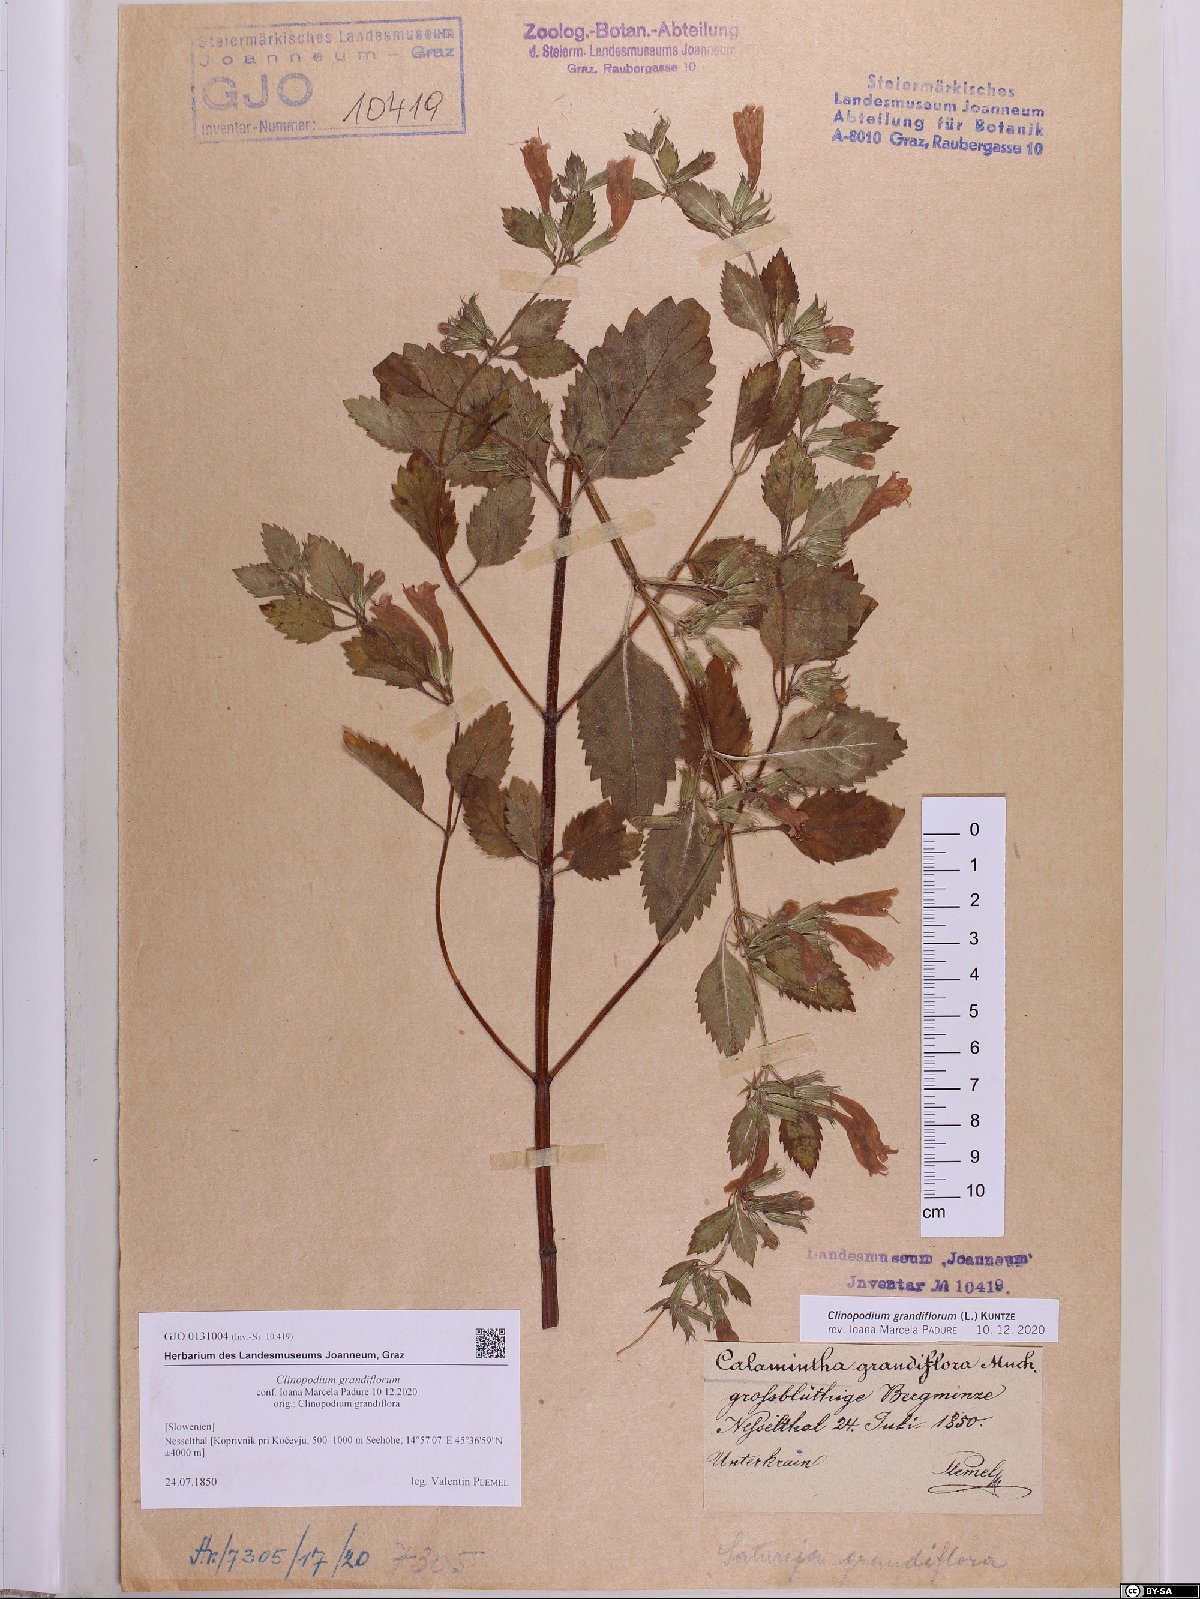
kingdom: Plantae
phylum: Tracheophyta
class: Magnoliopsida
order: Lamiales
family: Lamiaceae
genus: Clinopodium
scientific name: Clinopodium grandiflorum
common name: Greater calamint
